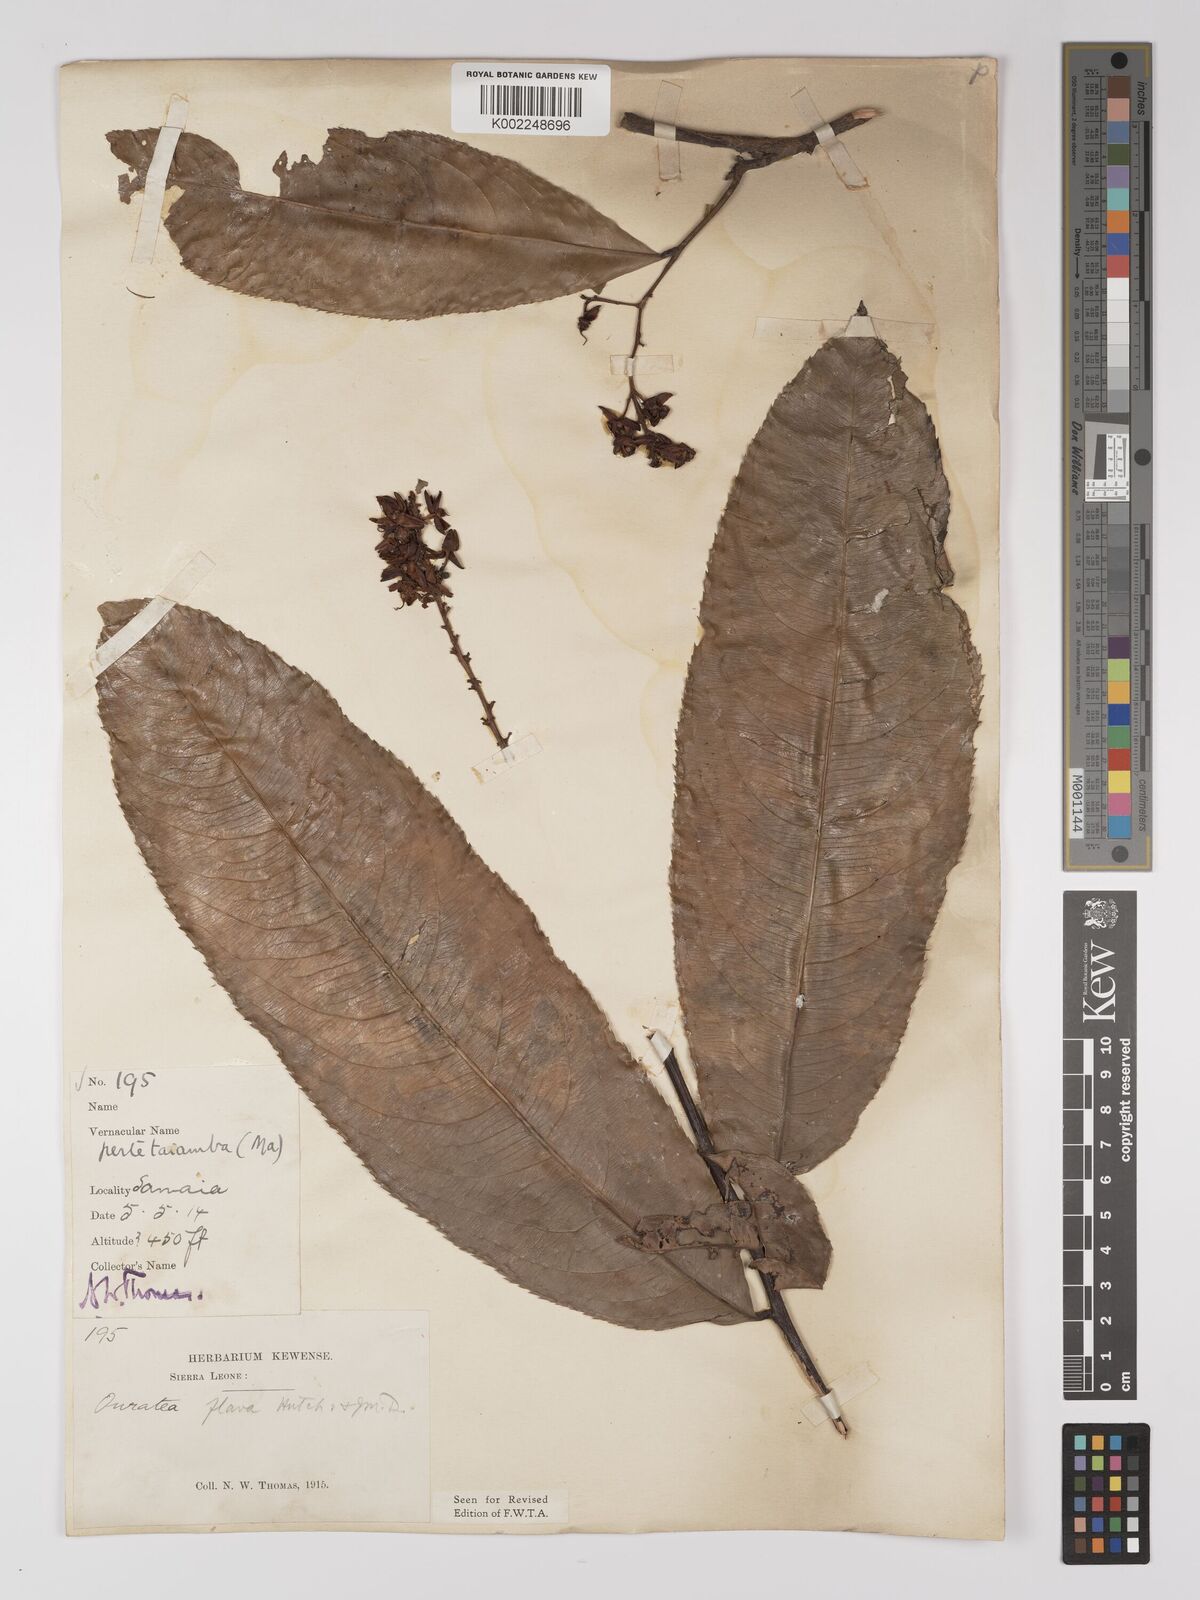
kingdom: Plantae
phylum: Tracheophyta
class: Magnoliopsida
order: Malpighiales
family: Ochnaceae
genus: Campylospermum
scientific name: Campylospermum flavum
